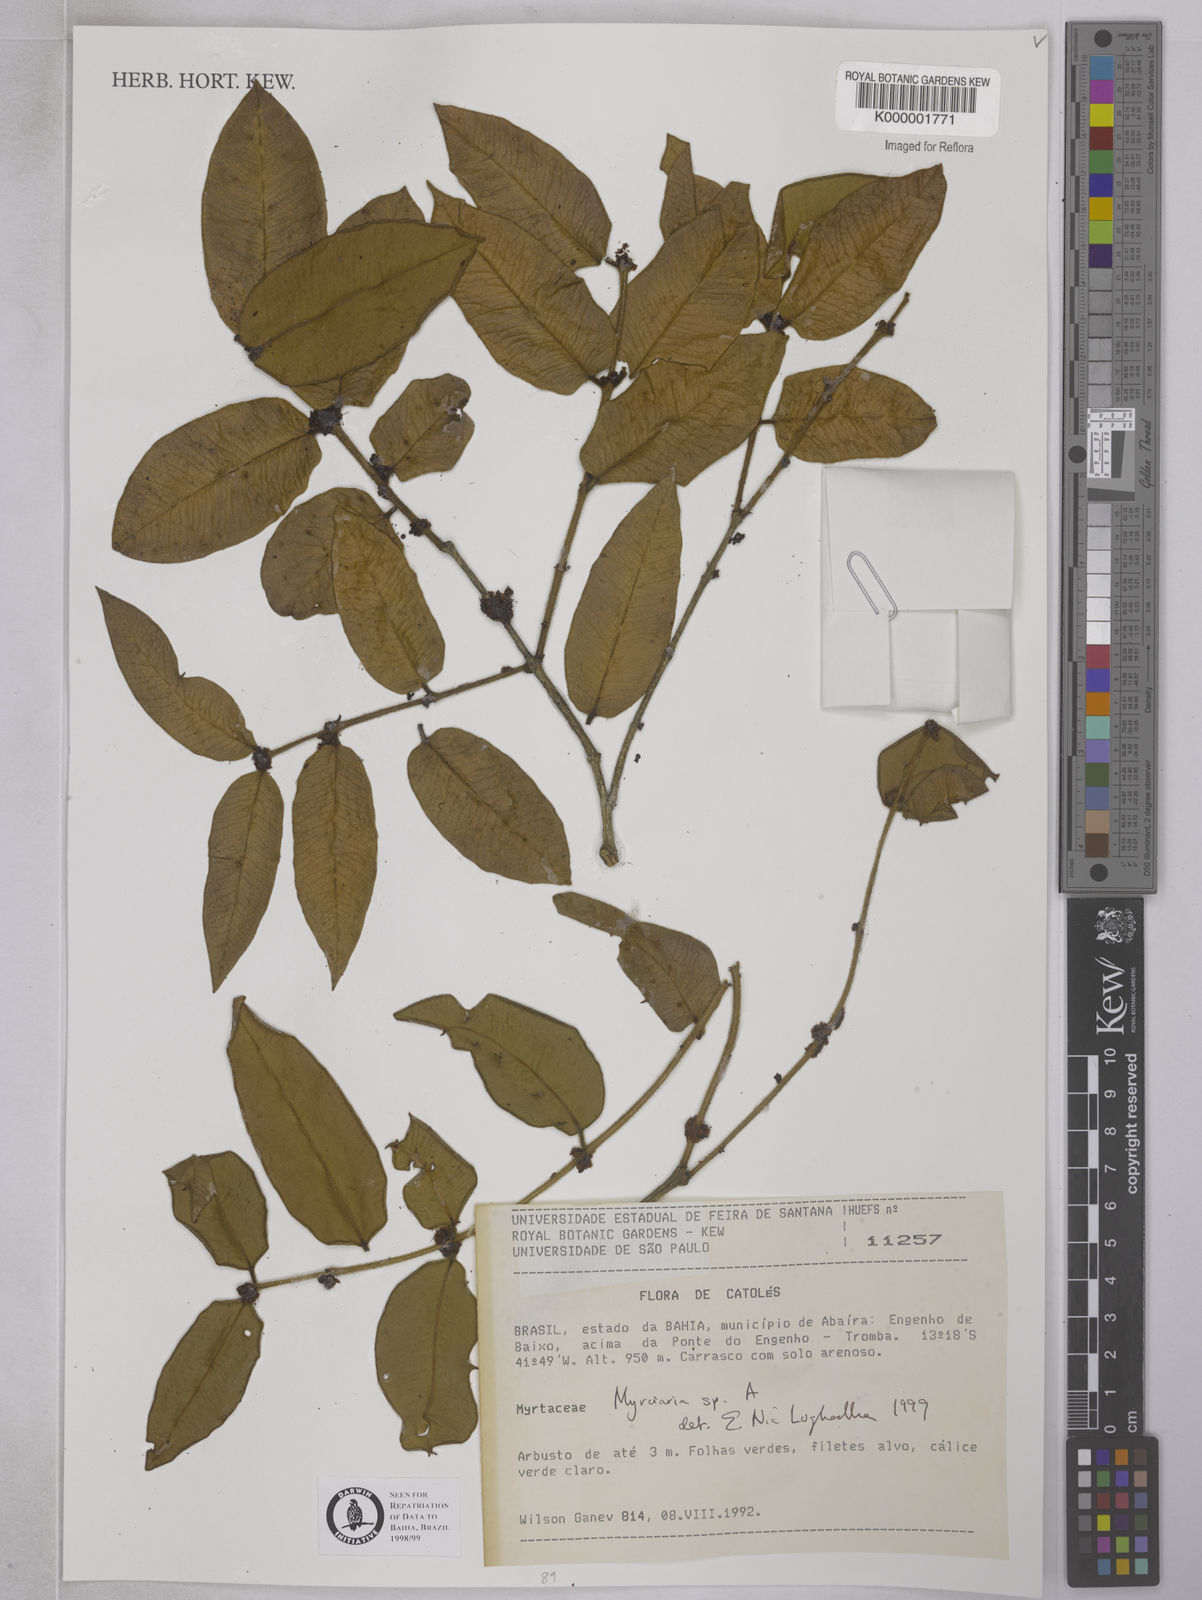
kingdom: Plantae
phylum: Tracheophyta
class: Magnoliopsida
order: Myrtales
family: Myrtaceae
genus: Myrciaria
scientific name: Myrciaria guaquiea
